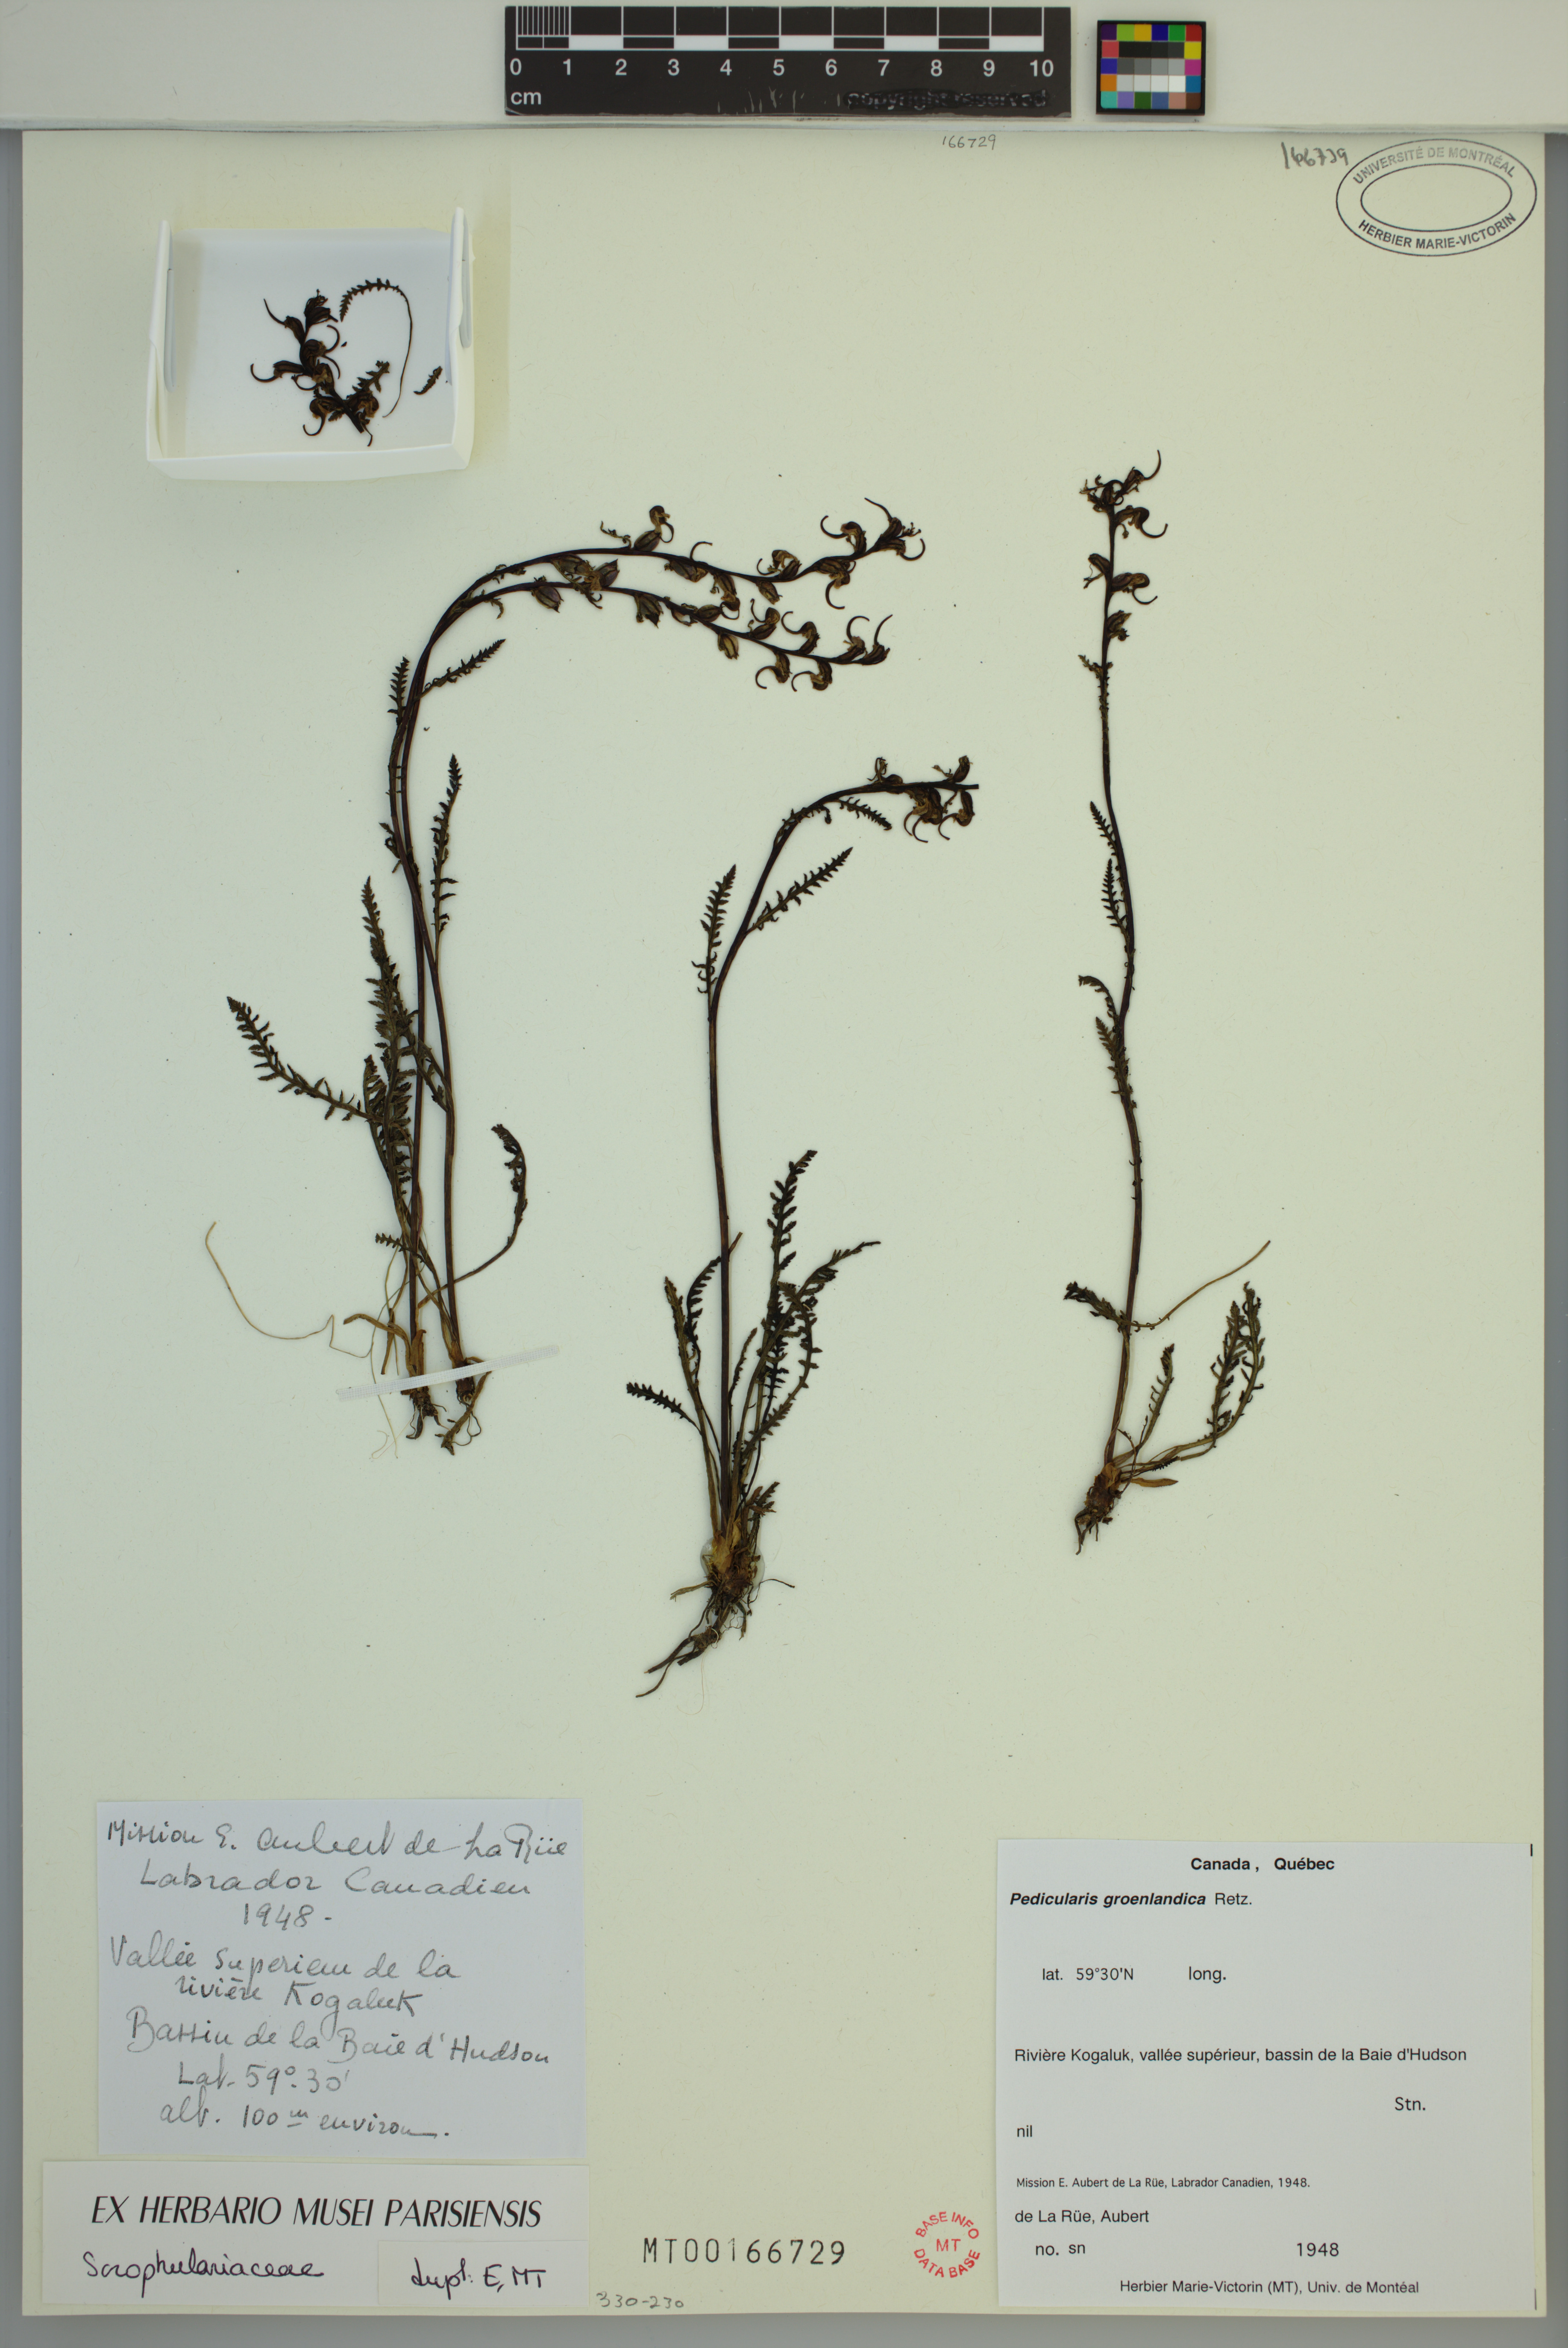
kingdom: Plantae
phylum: Tracheophyta
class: Magnoliopsida
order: Lamiales
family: Orobanchaceae
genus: Pedicularis
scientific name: Pedicularis groenlandica
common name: Elephant's-head
